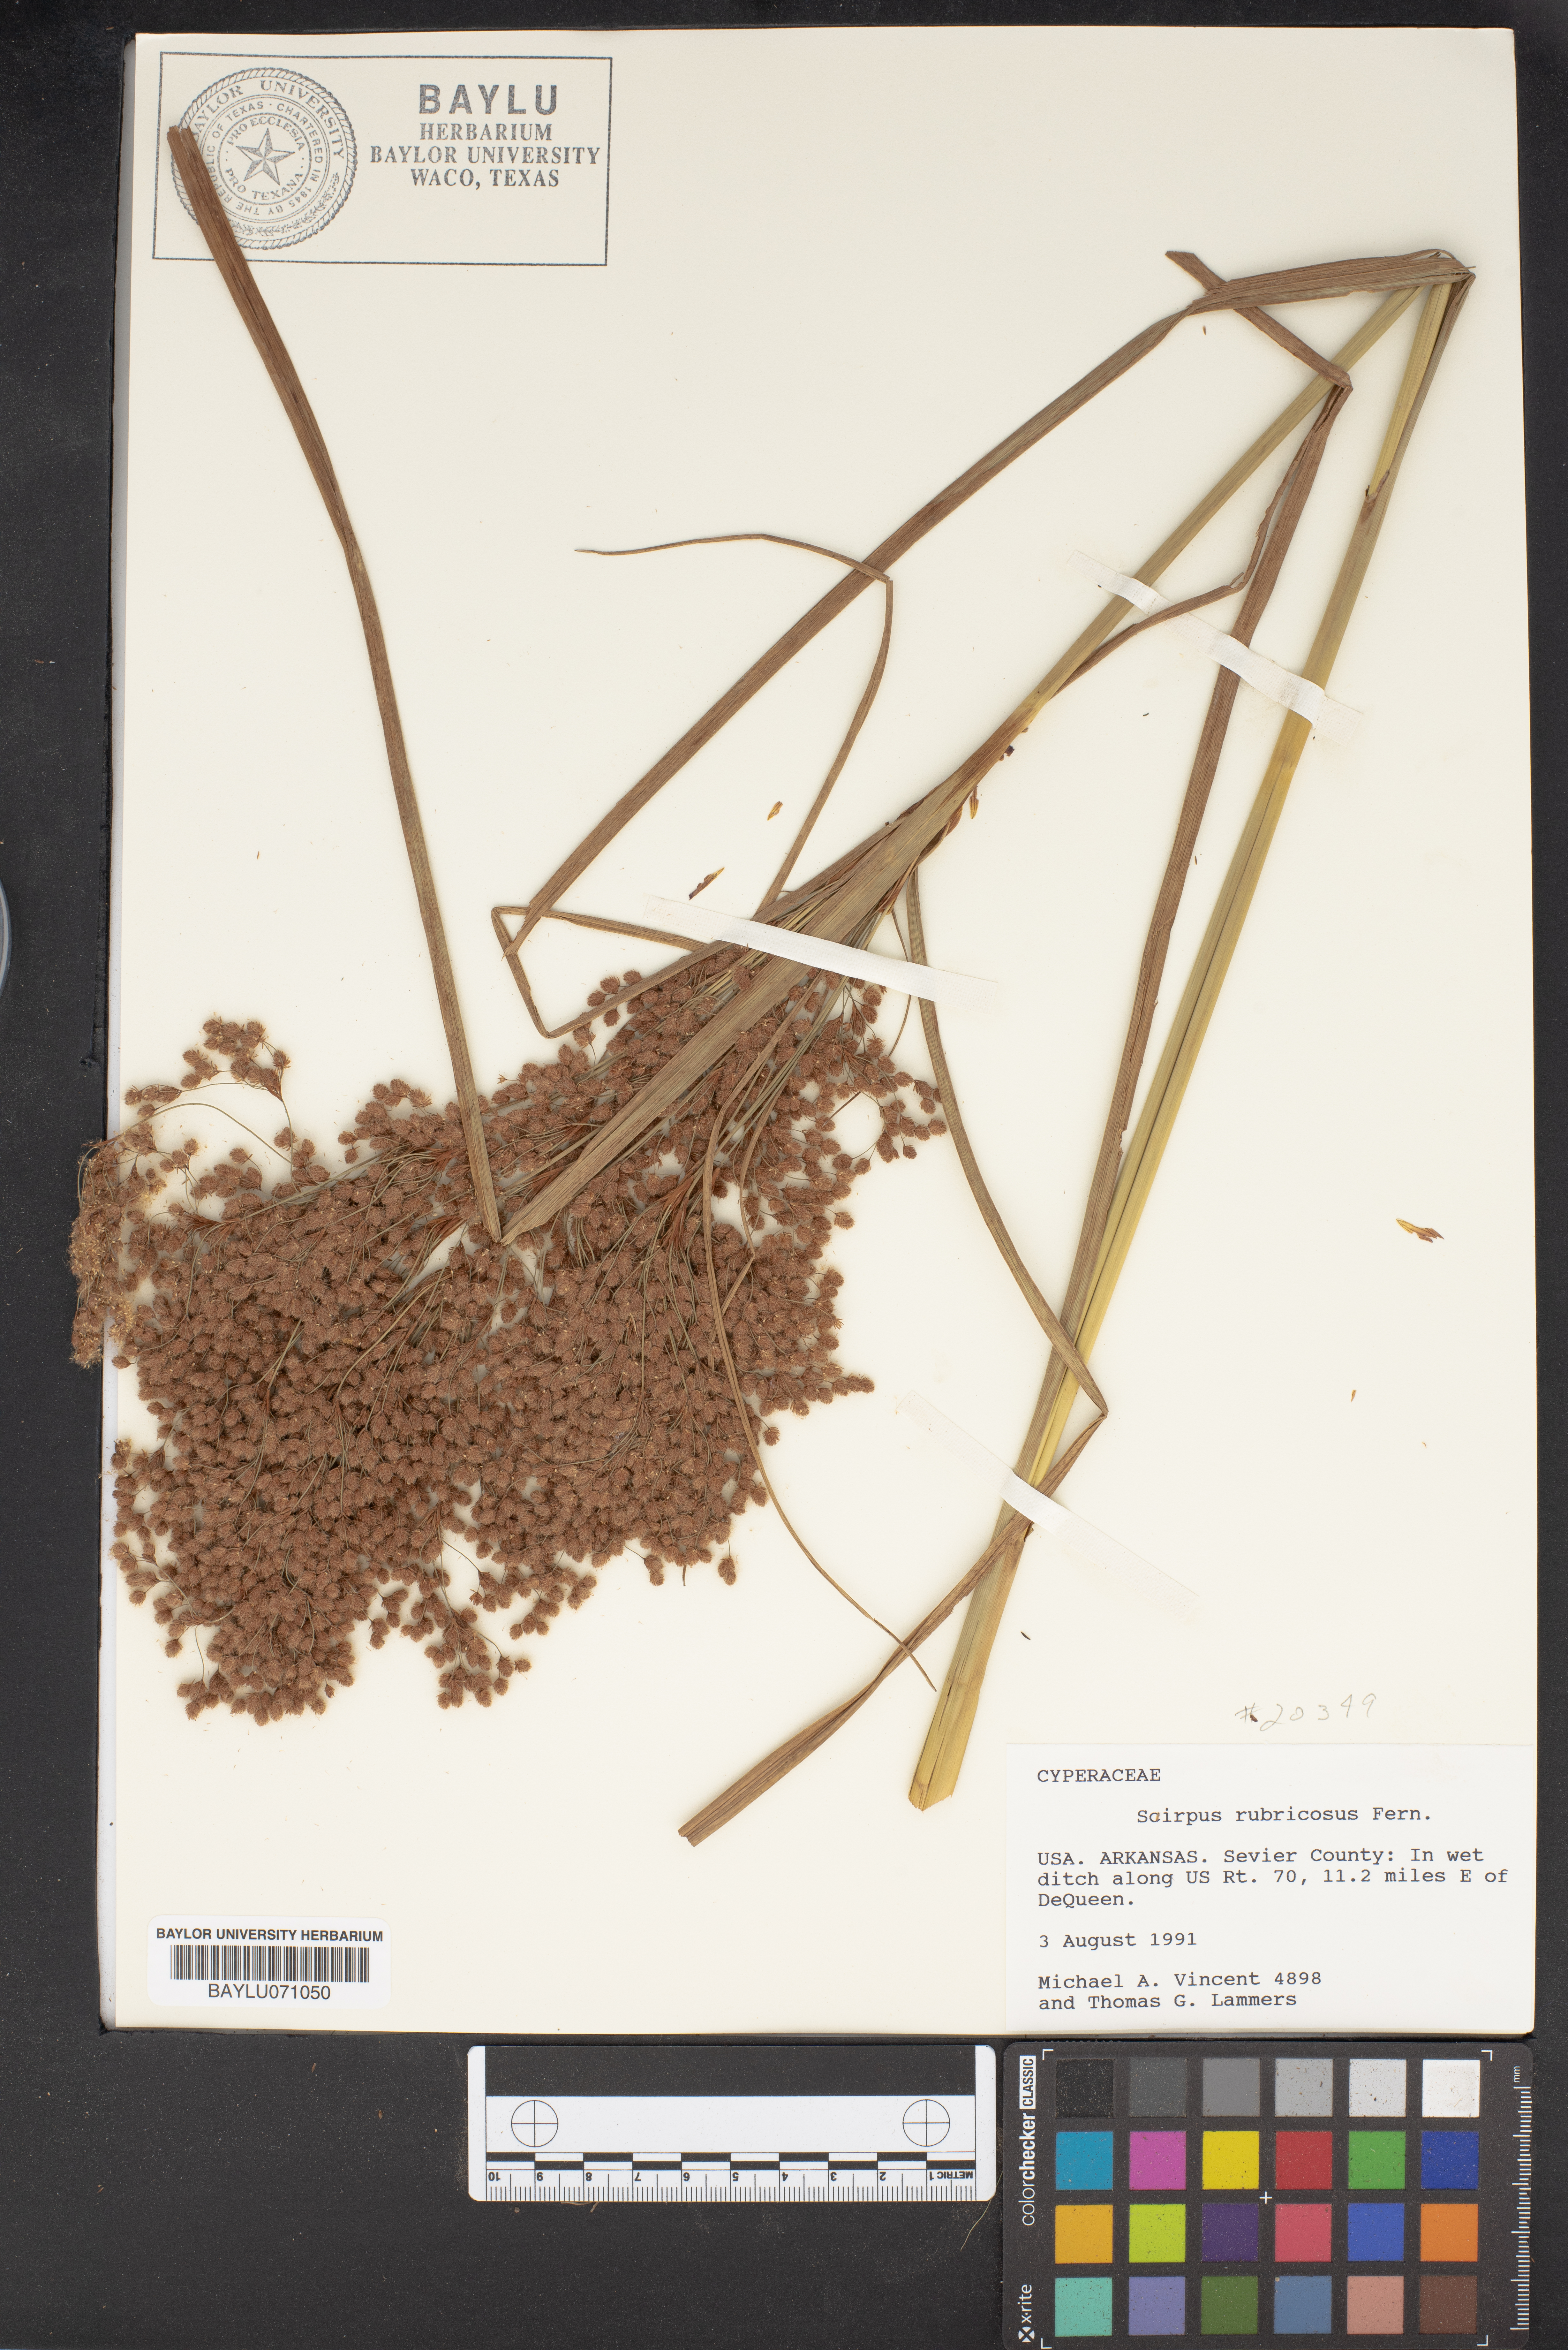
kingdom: Plantae
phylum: Tracheophyta
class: Liliopsida
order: Poales
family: Cyperaceae
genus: Scirpus
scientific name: Scirpus cyperinus
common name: Black-sheathed bulrush
